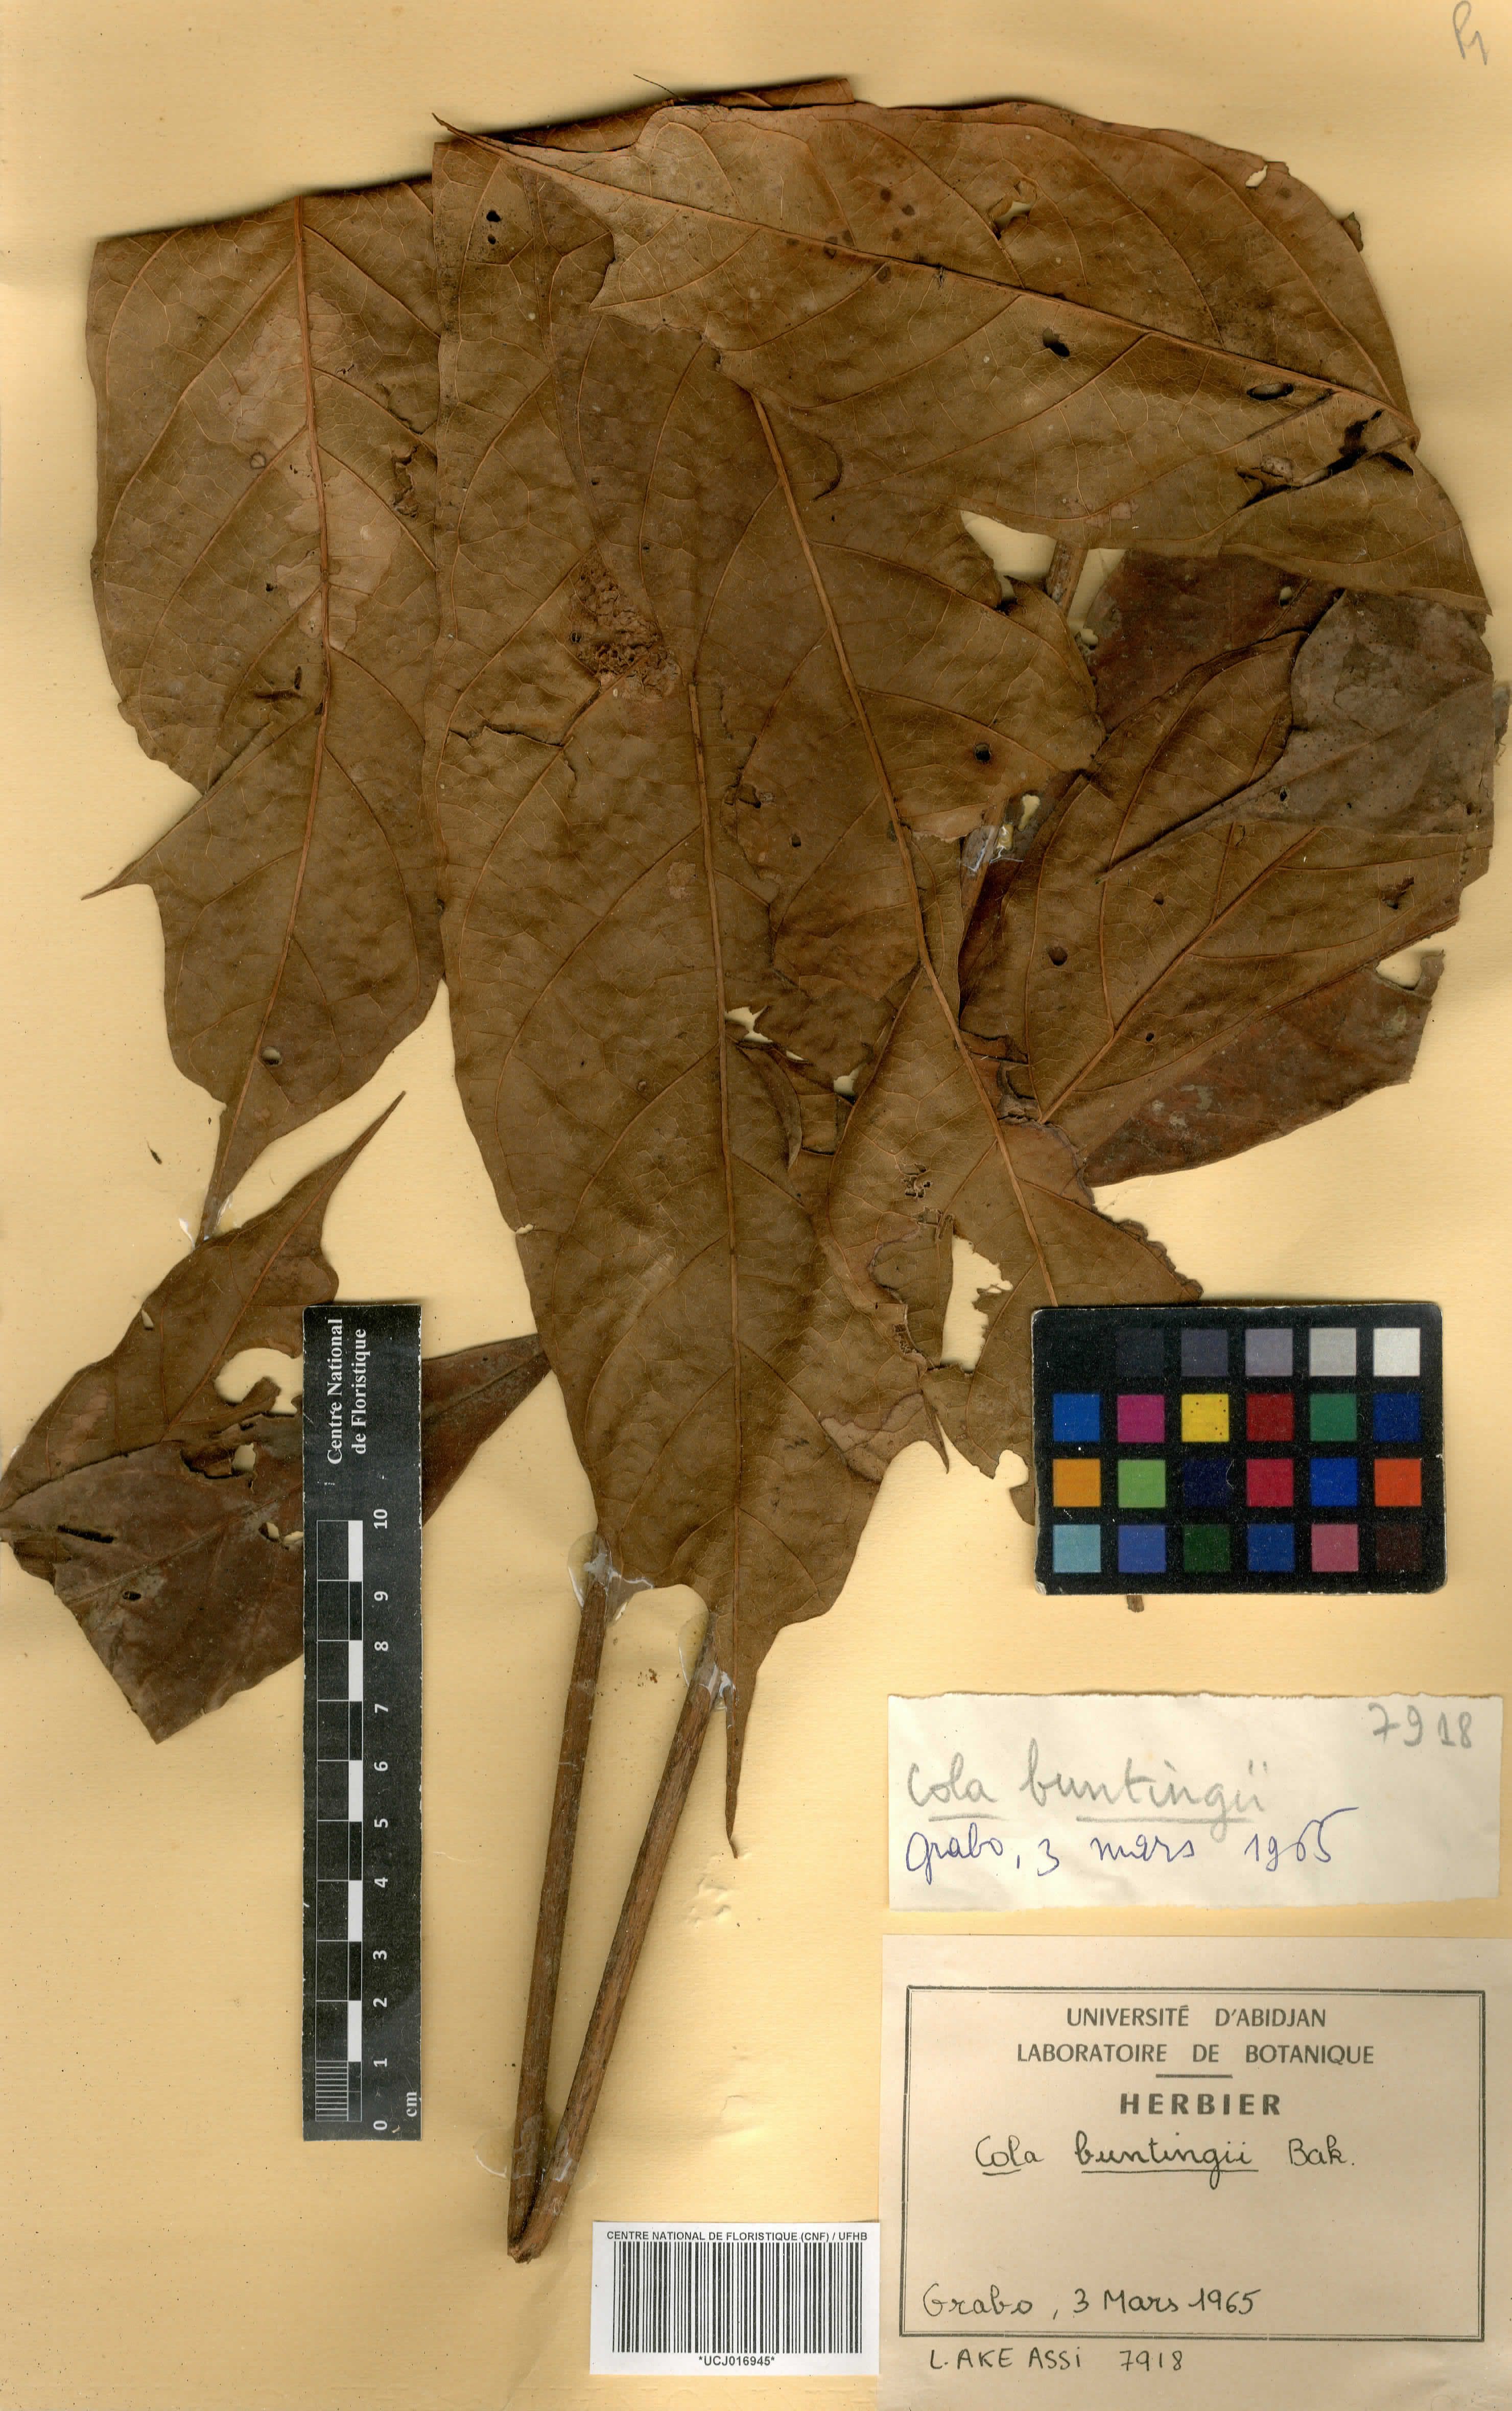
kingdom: Plantae
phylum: Tracheophyta
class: Magnoliopsida
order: Malvales
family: Malvaceae
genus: Cola
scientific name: Cola buntingii
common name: Bunting's cola
